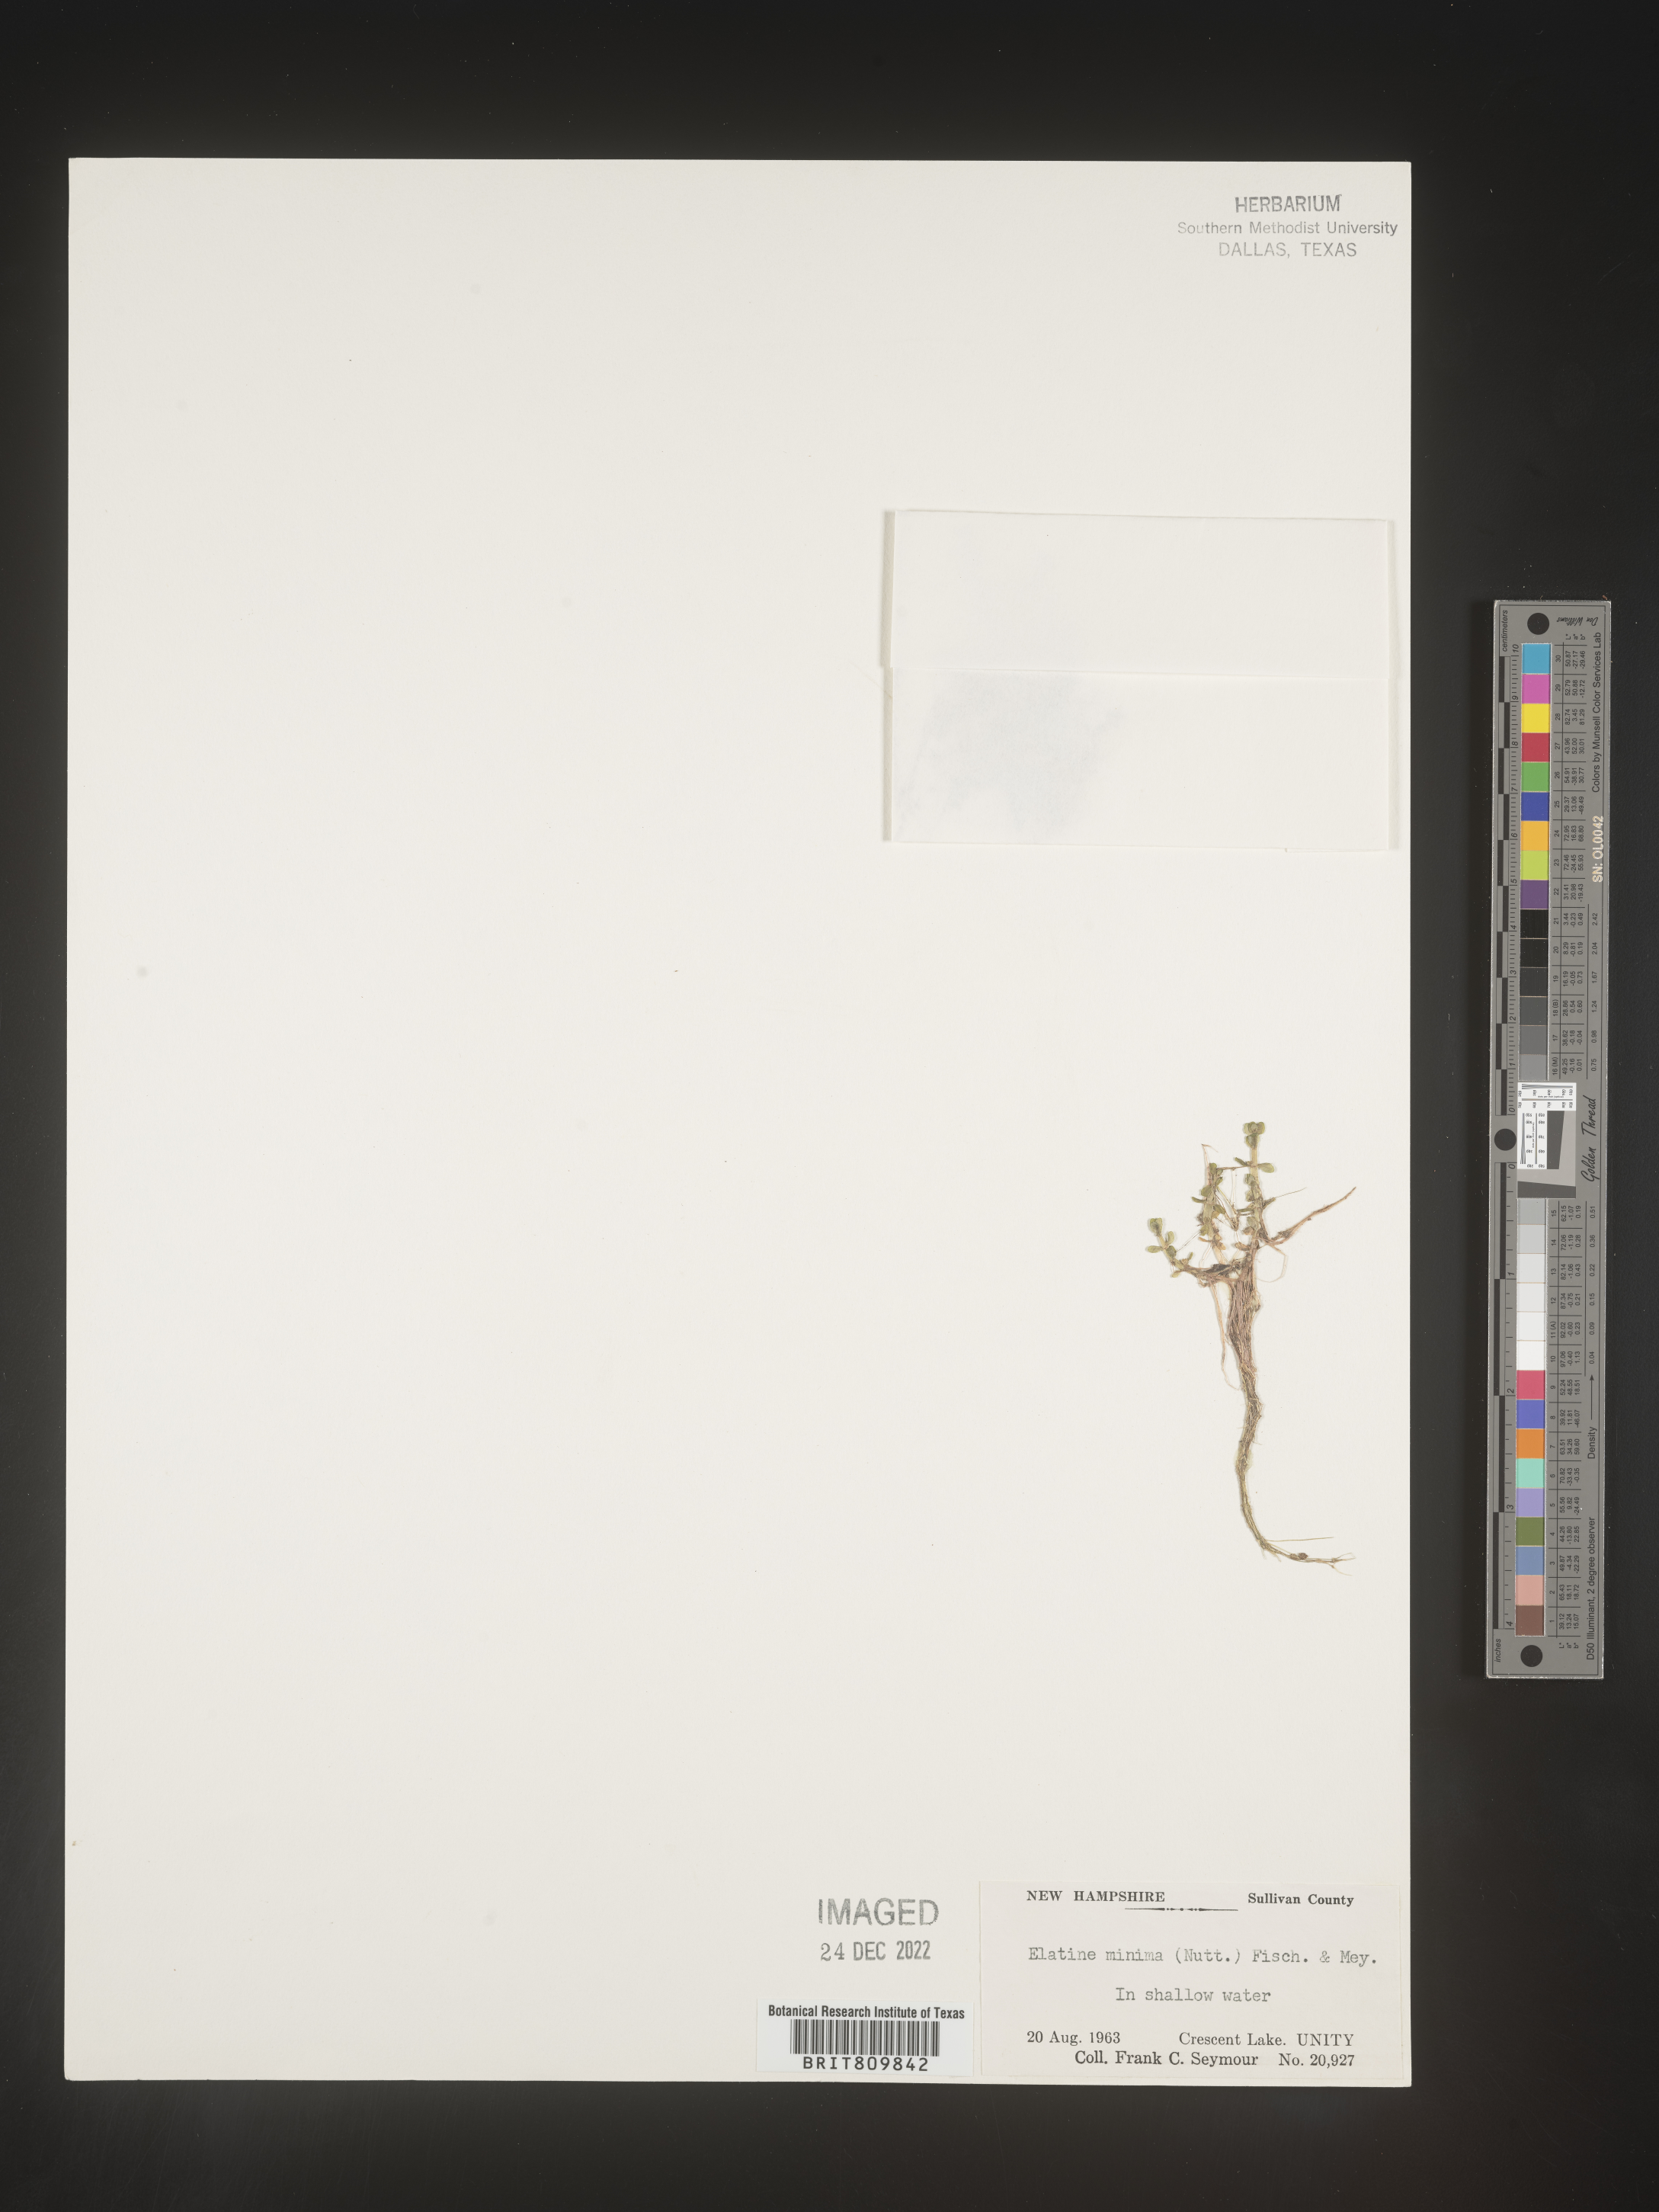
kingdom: Plantae
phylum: Tracheophyta
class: Magnoliopsida
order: Malpighiales
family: Elatinaceae
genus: Elatine
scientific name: Elatine
